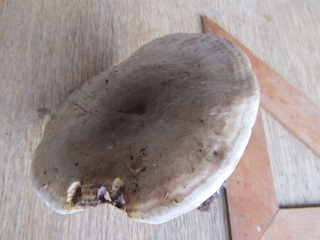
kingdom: Fungi
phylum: Basidiomycota
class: Agaricomycetes
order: Russulales
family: Russulaceae
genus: Lactarius
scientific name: Lactarius fluens
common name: lysrandet mælkehat
